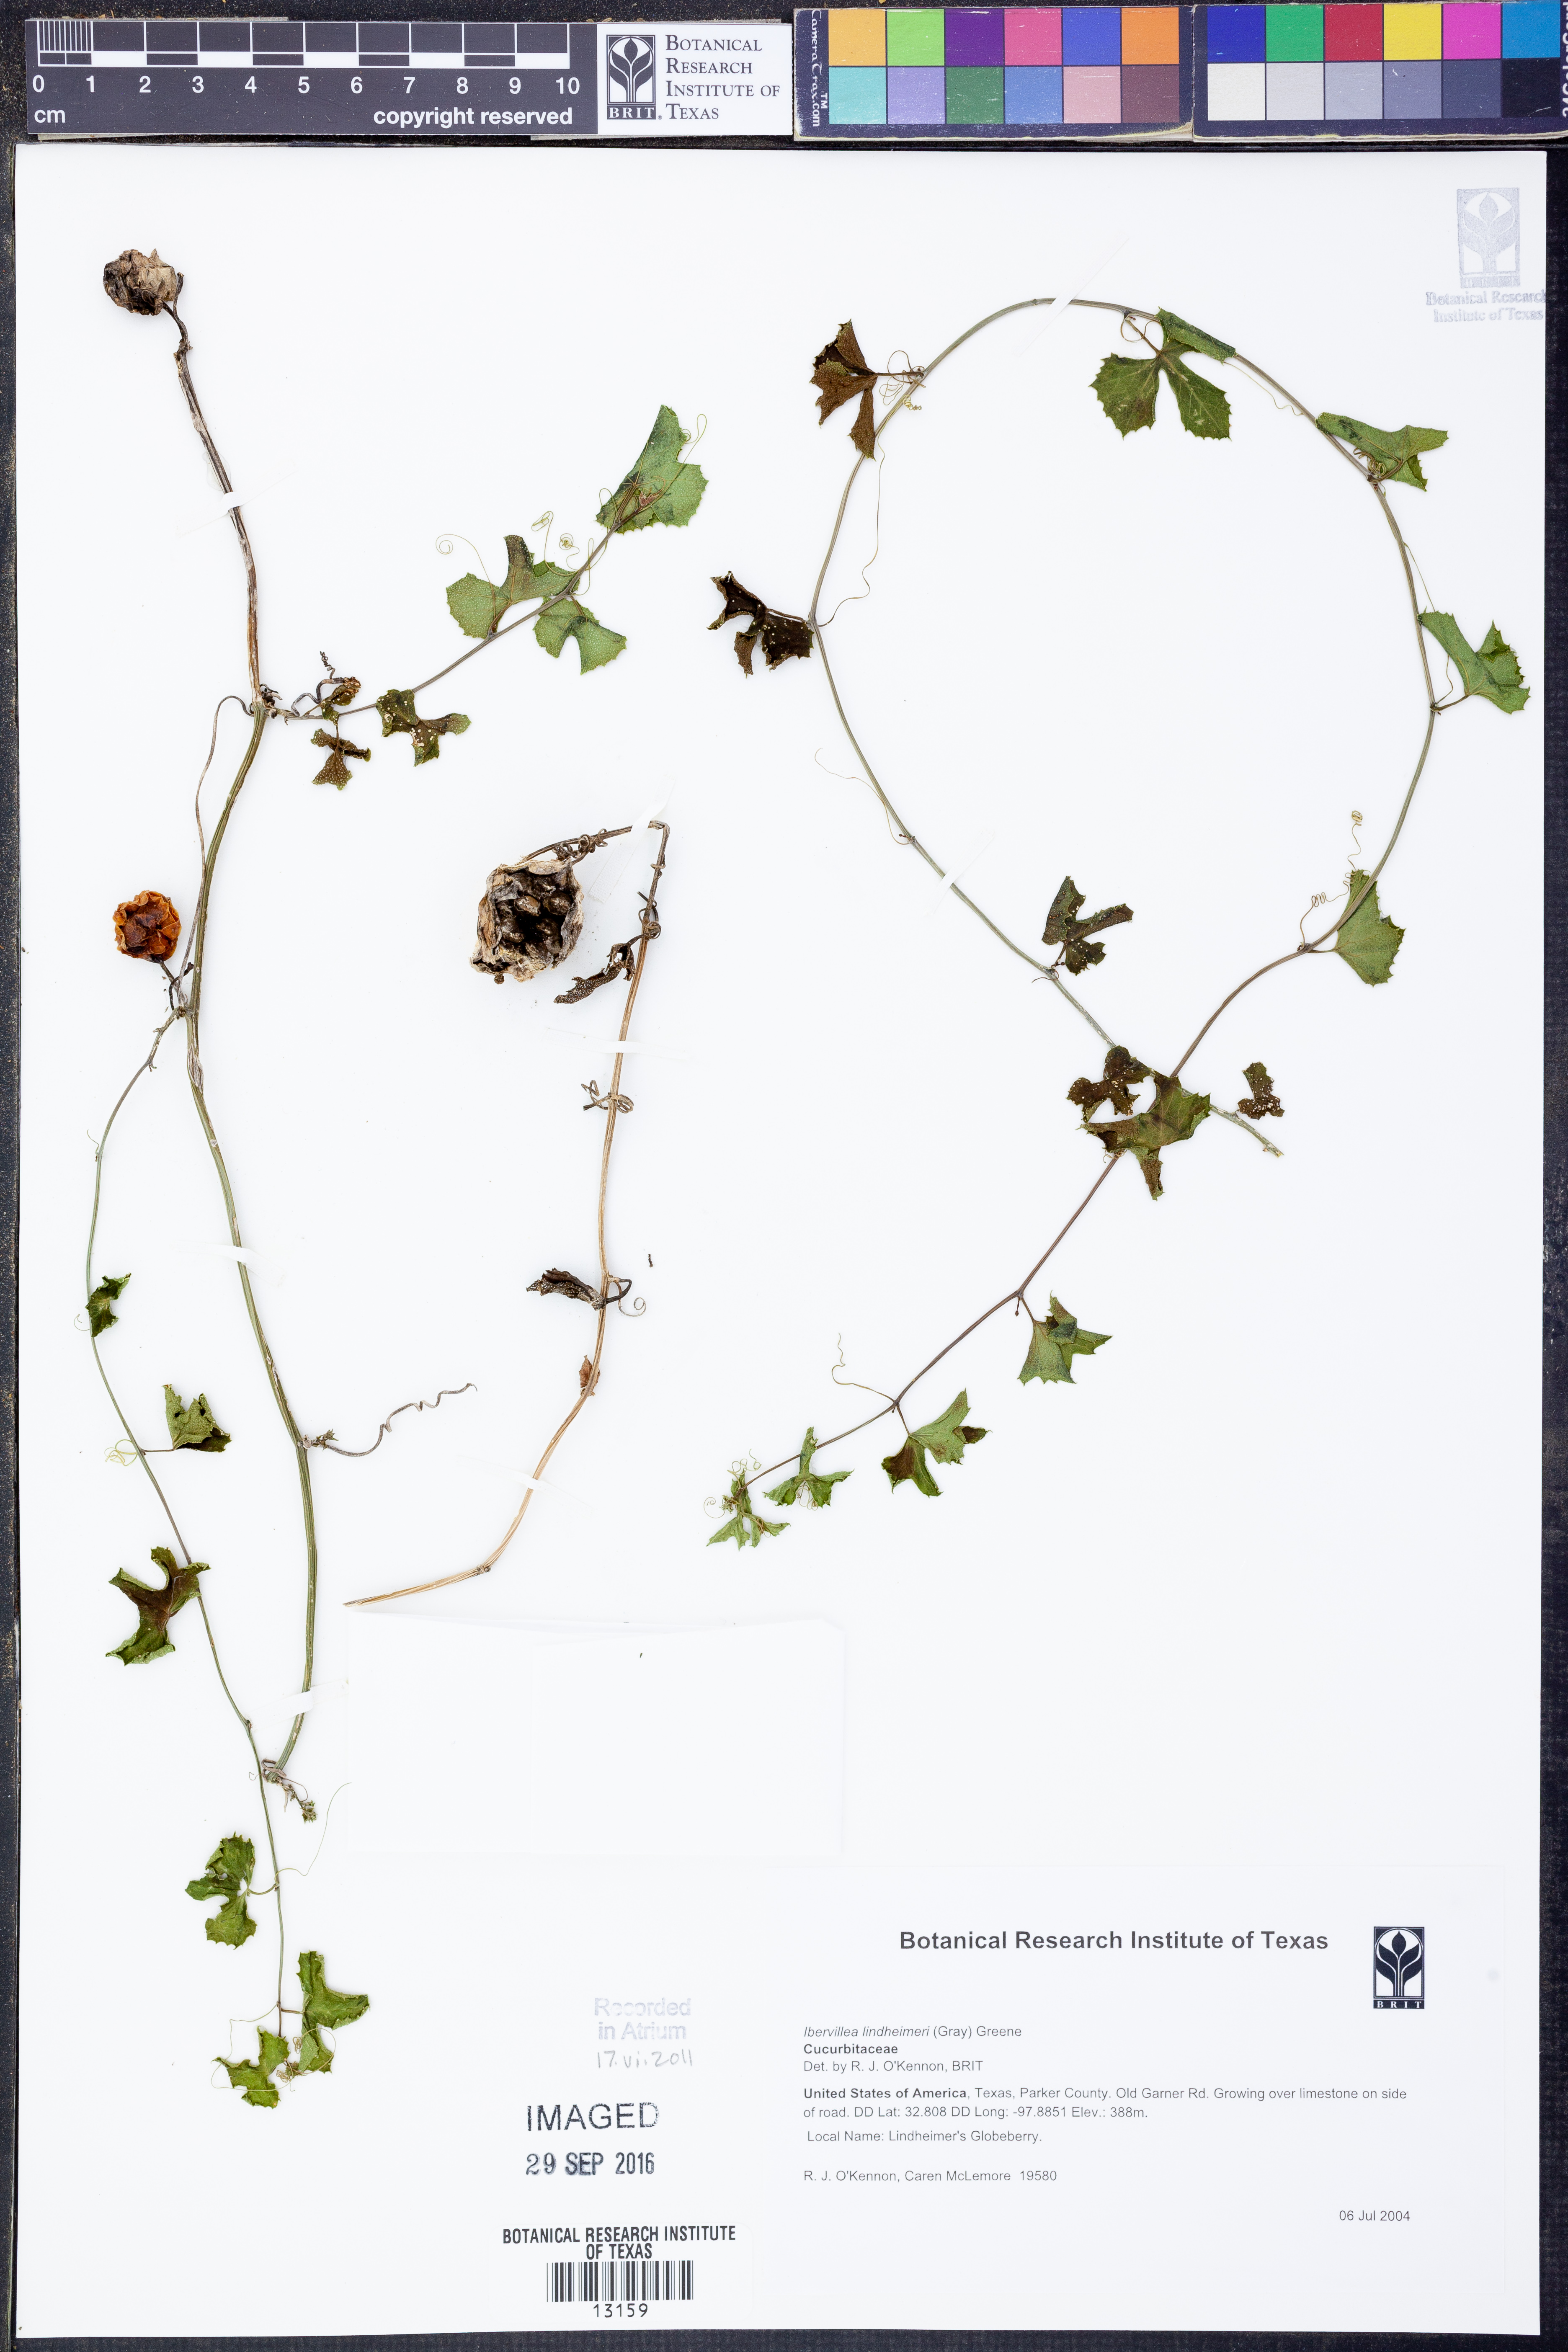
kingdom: Plantae
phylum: Tracheophyta
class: Magnoliopsida
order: Cucurbitales
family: Cucurbitaceae
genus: Ibervillea
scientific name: Ibervillea lindheimeri
